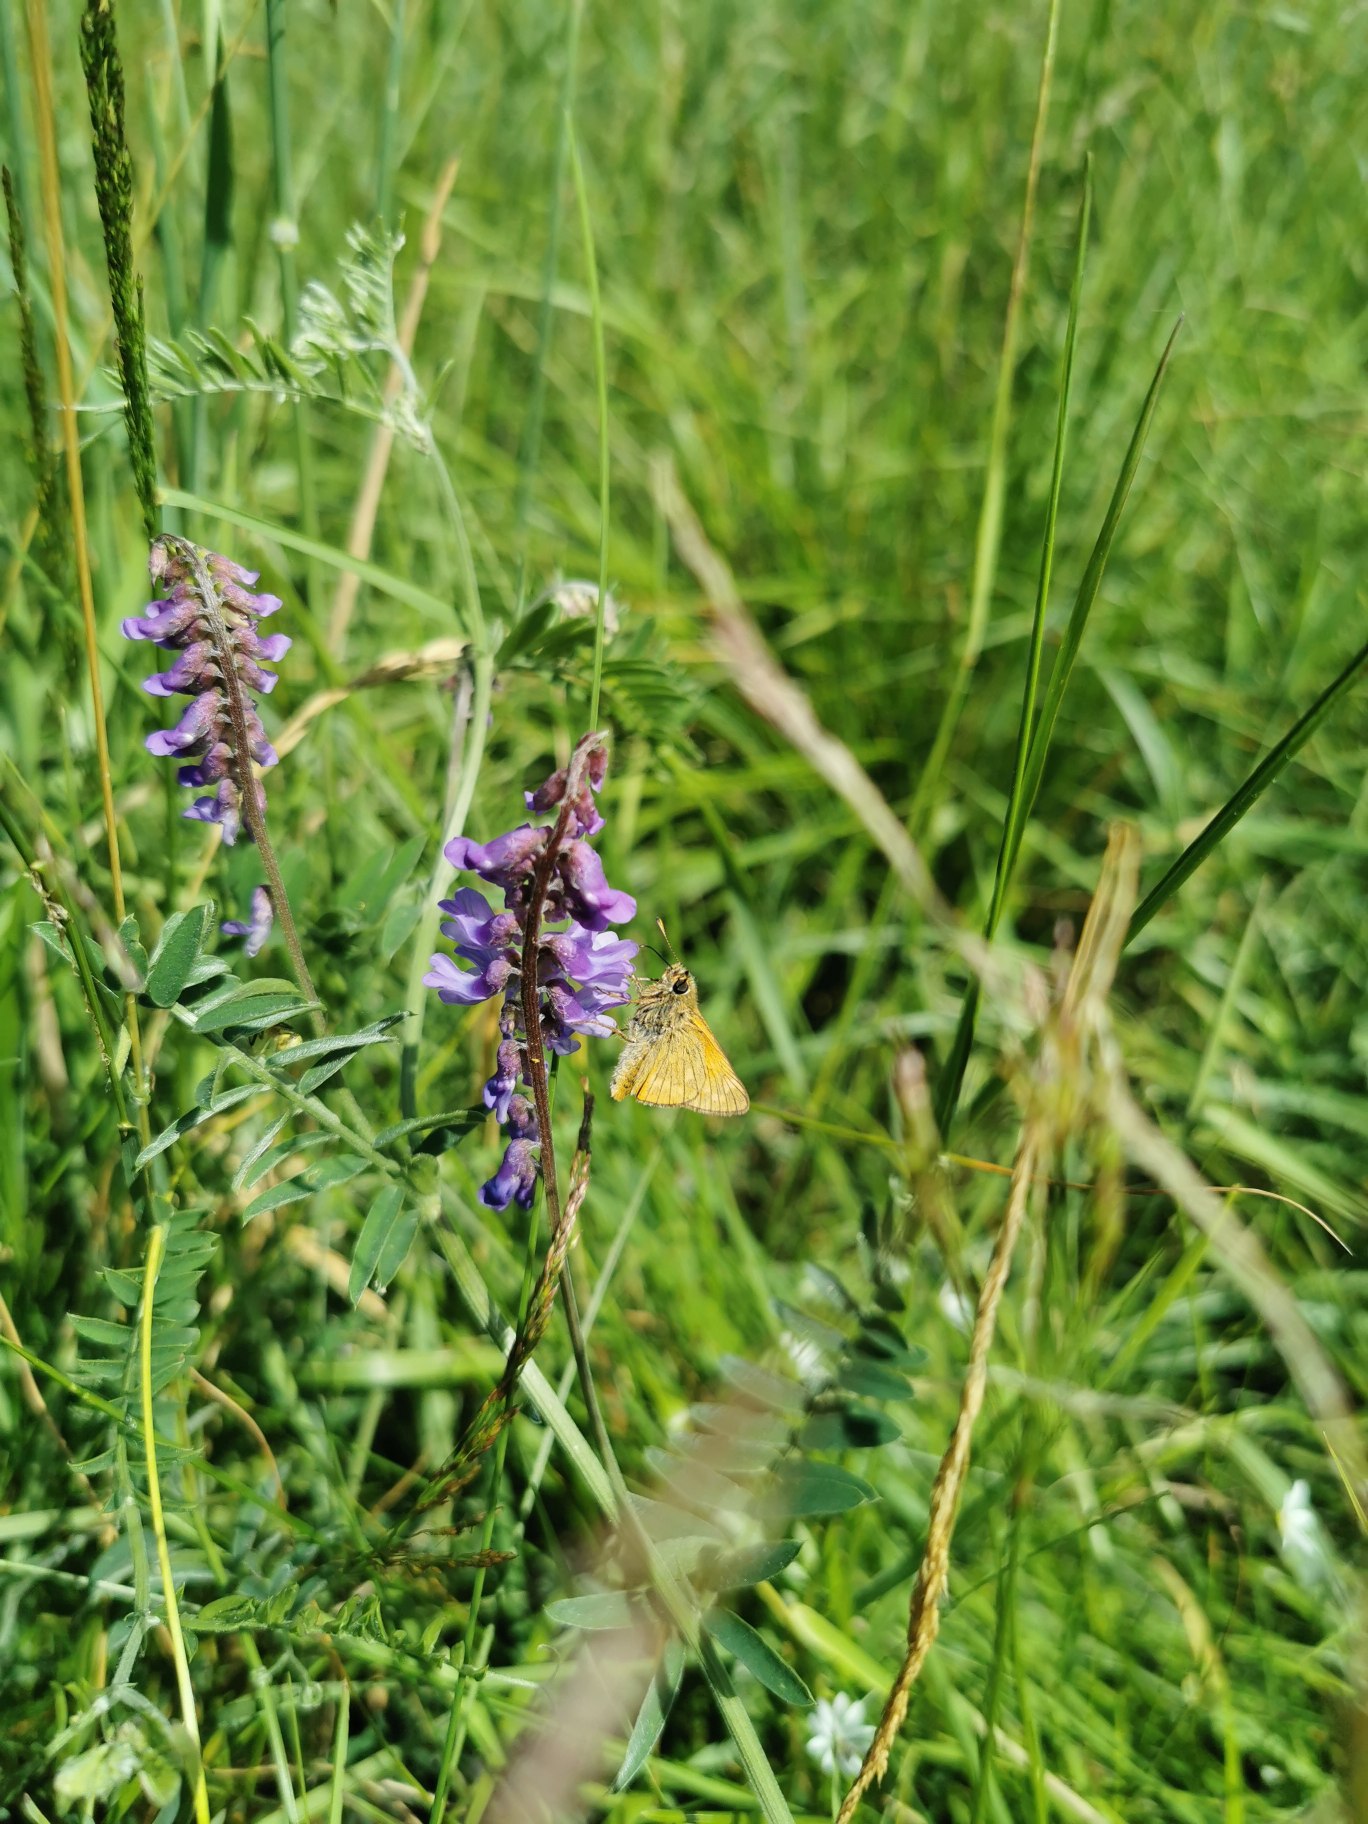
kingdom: Animalia
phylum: Arthropoda
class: Insecta
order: Lepidoptera
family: Hesperiidae
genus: Ochlodes
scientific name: Ochlodes venata
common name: Stor bredpande
